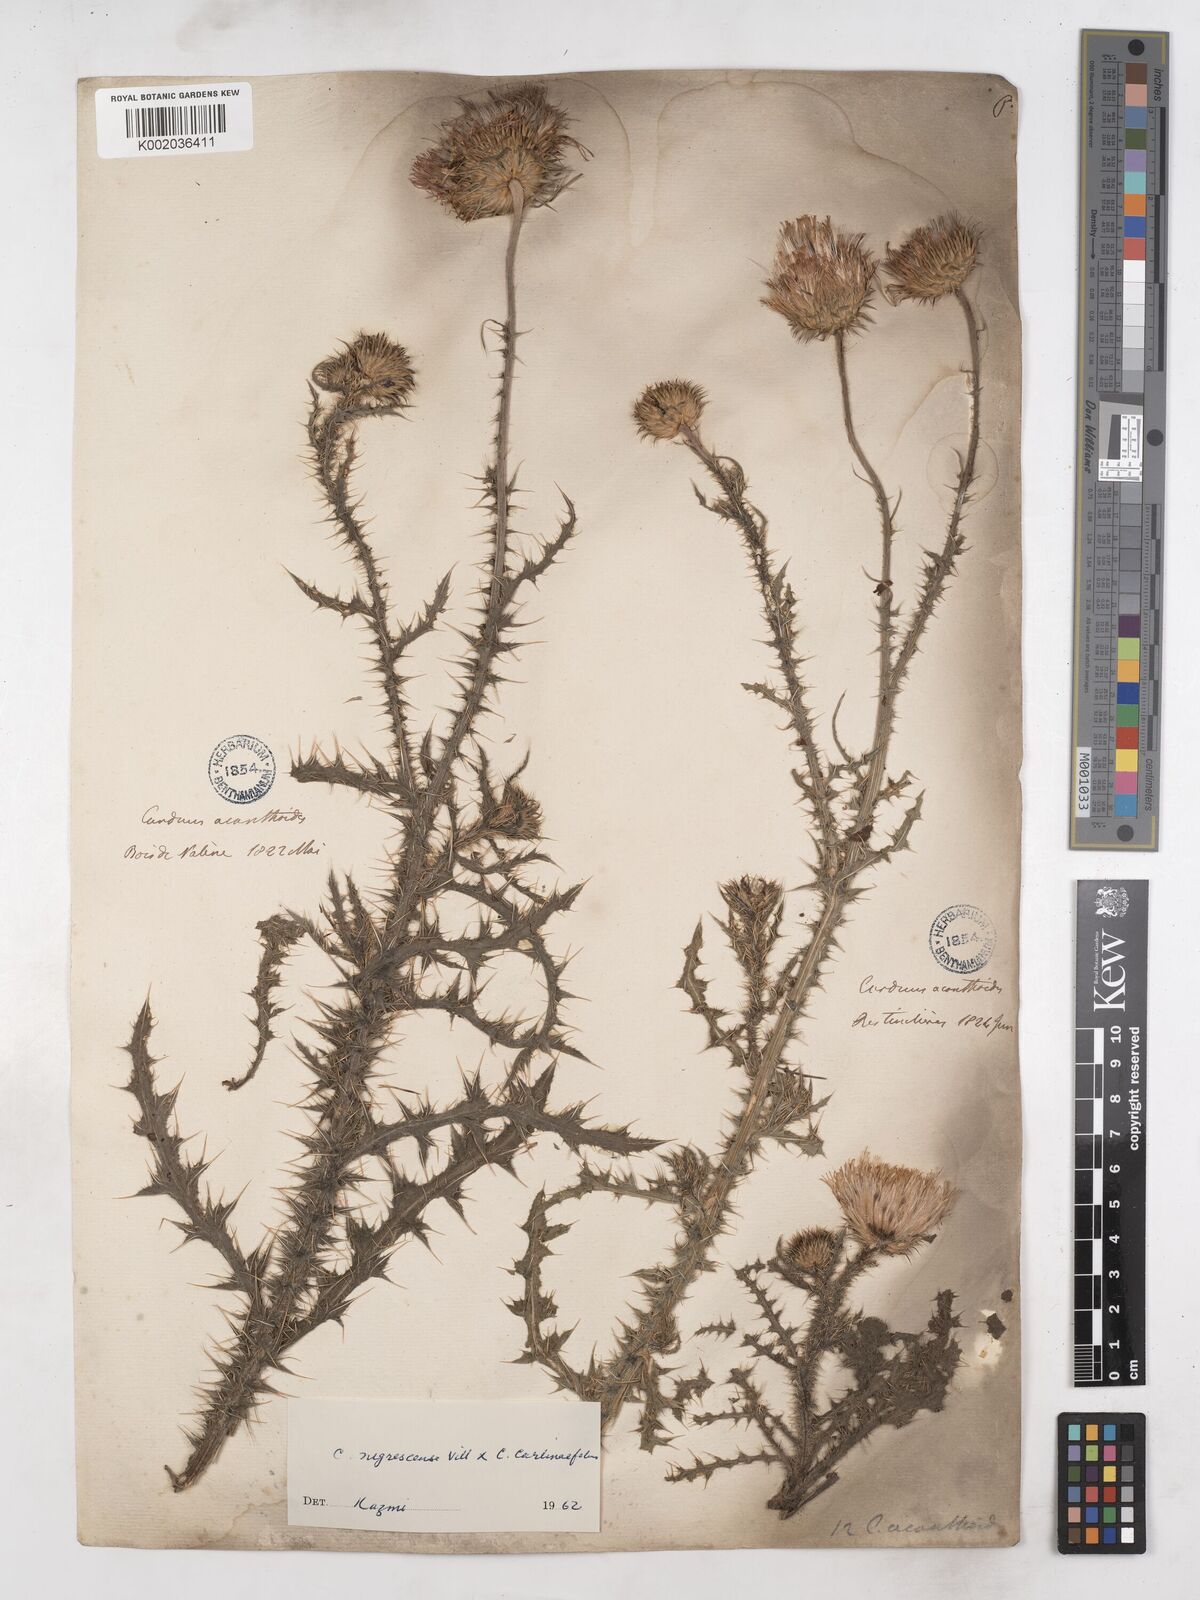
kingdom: Plantae
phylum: Tracheophyta
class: Magnoliopsida
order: Asterales
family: Asteraceae
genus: Carduus
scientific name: Carduus carlinifolius
